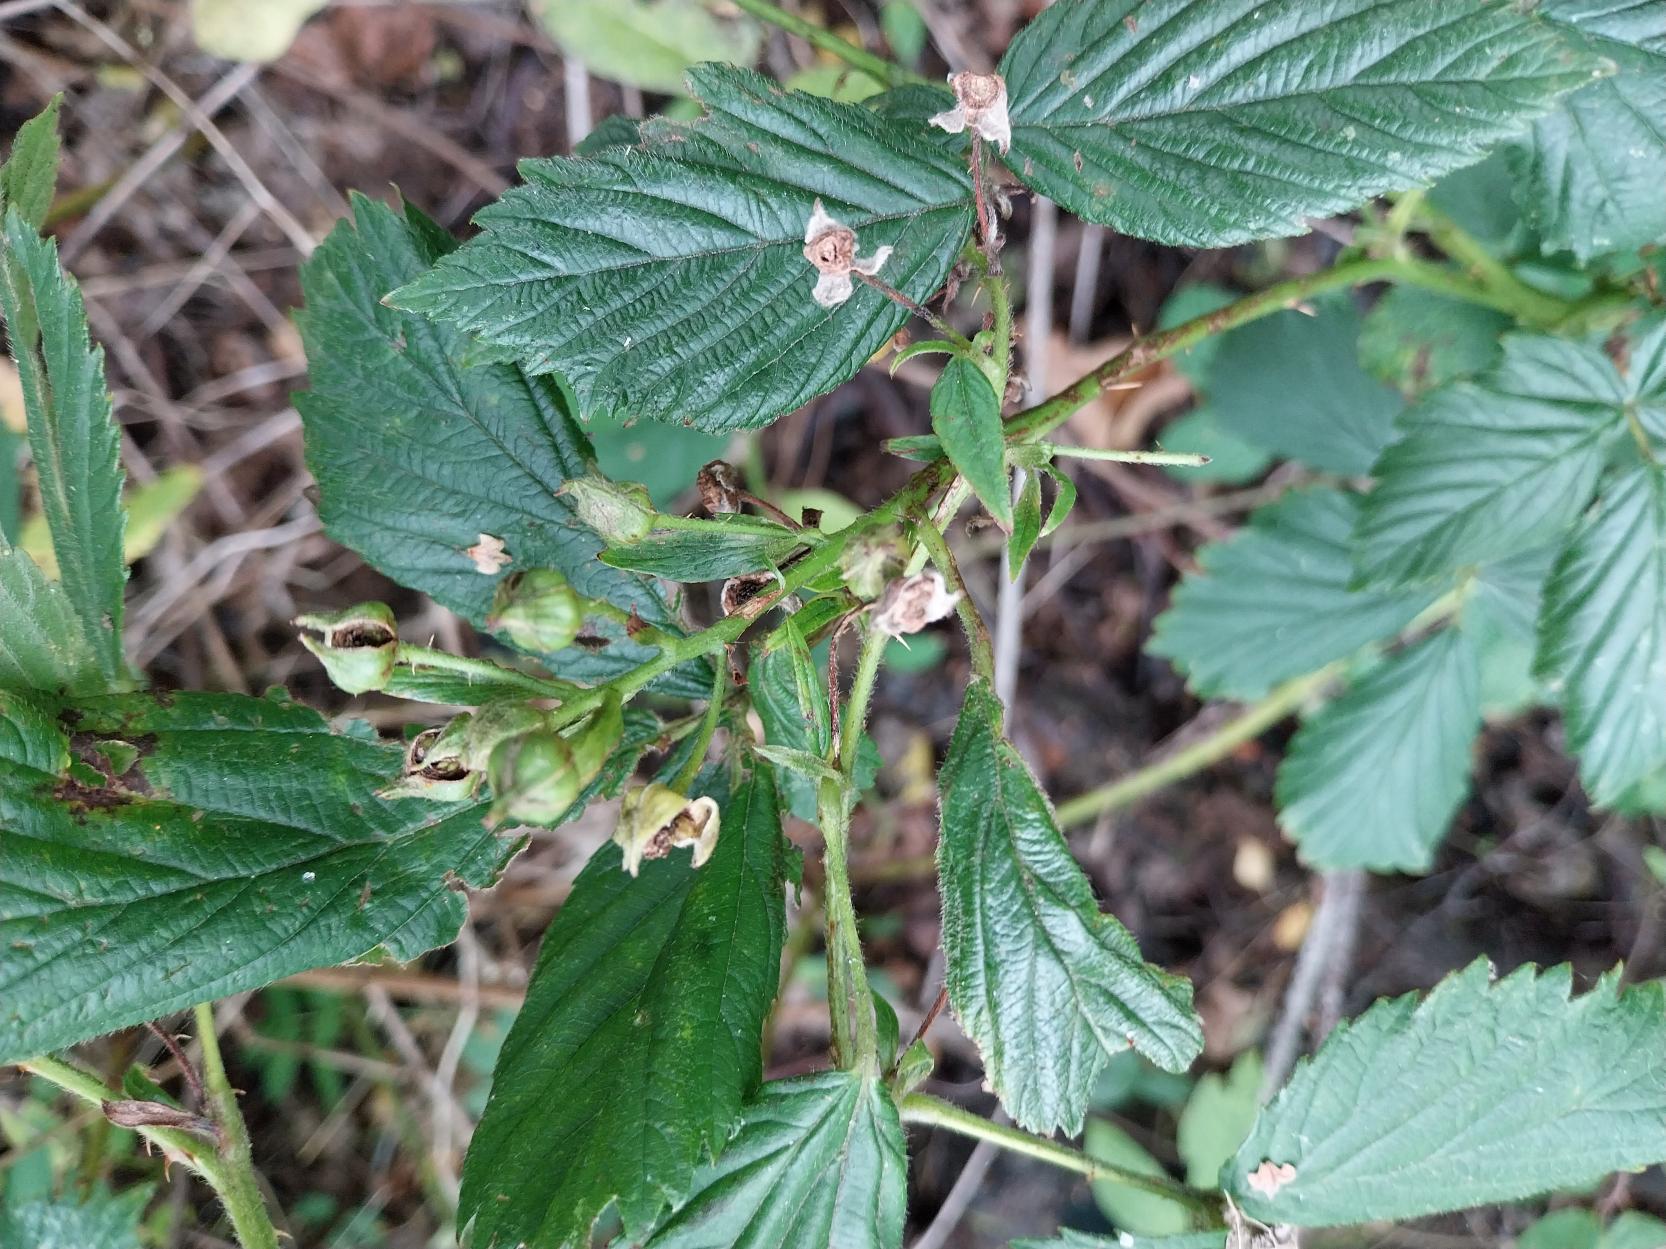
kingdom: Plantae
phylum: Tracheophyta
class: Magnoliopsida
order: Rosales
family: Rosaceae
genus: Rubus
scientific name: Rubus
